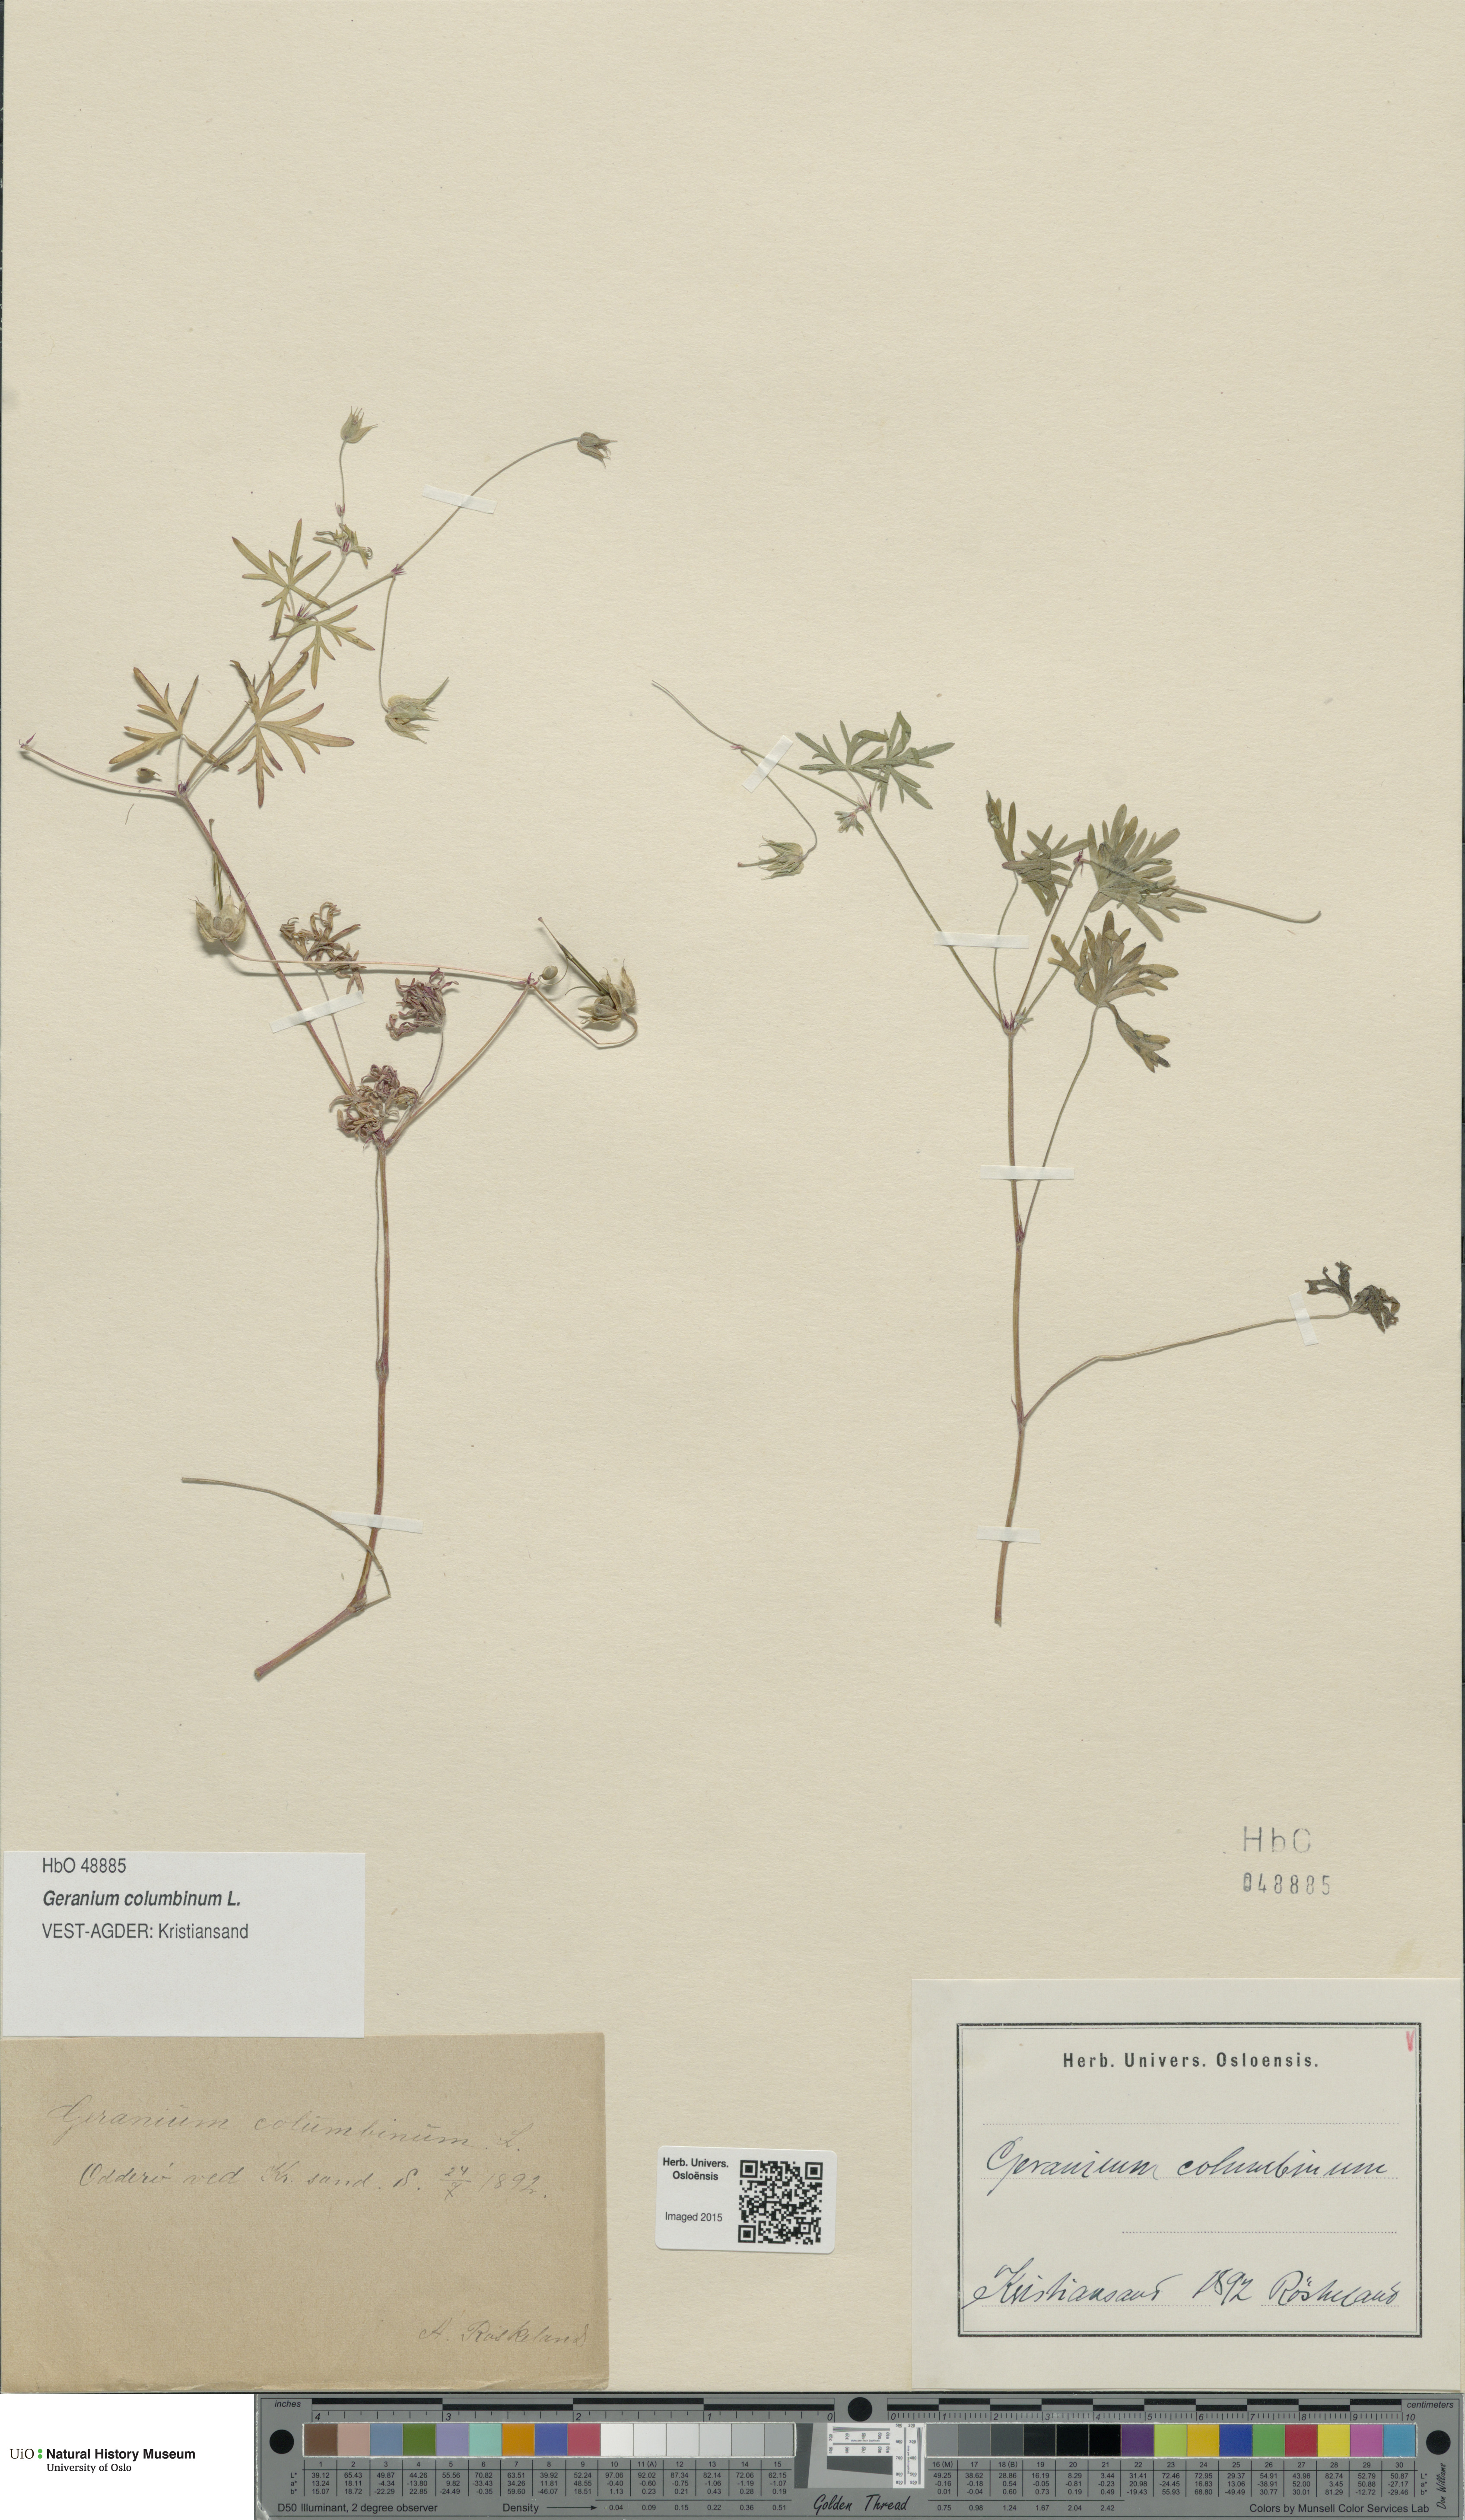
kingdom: Plantae
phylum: Tracheophyta
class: Magnoliopsida
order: Geraniales
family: Geraniaceae
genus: Geranium
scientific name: Geranium columbinum
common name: Long-stalked crane's-bill
